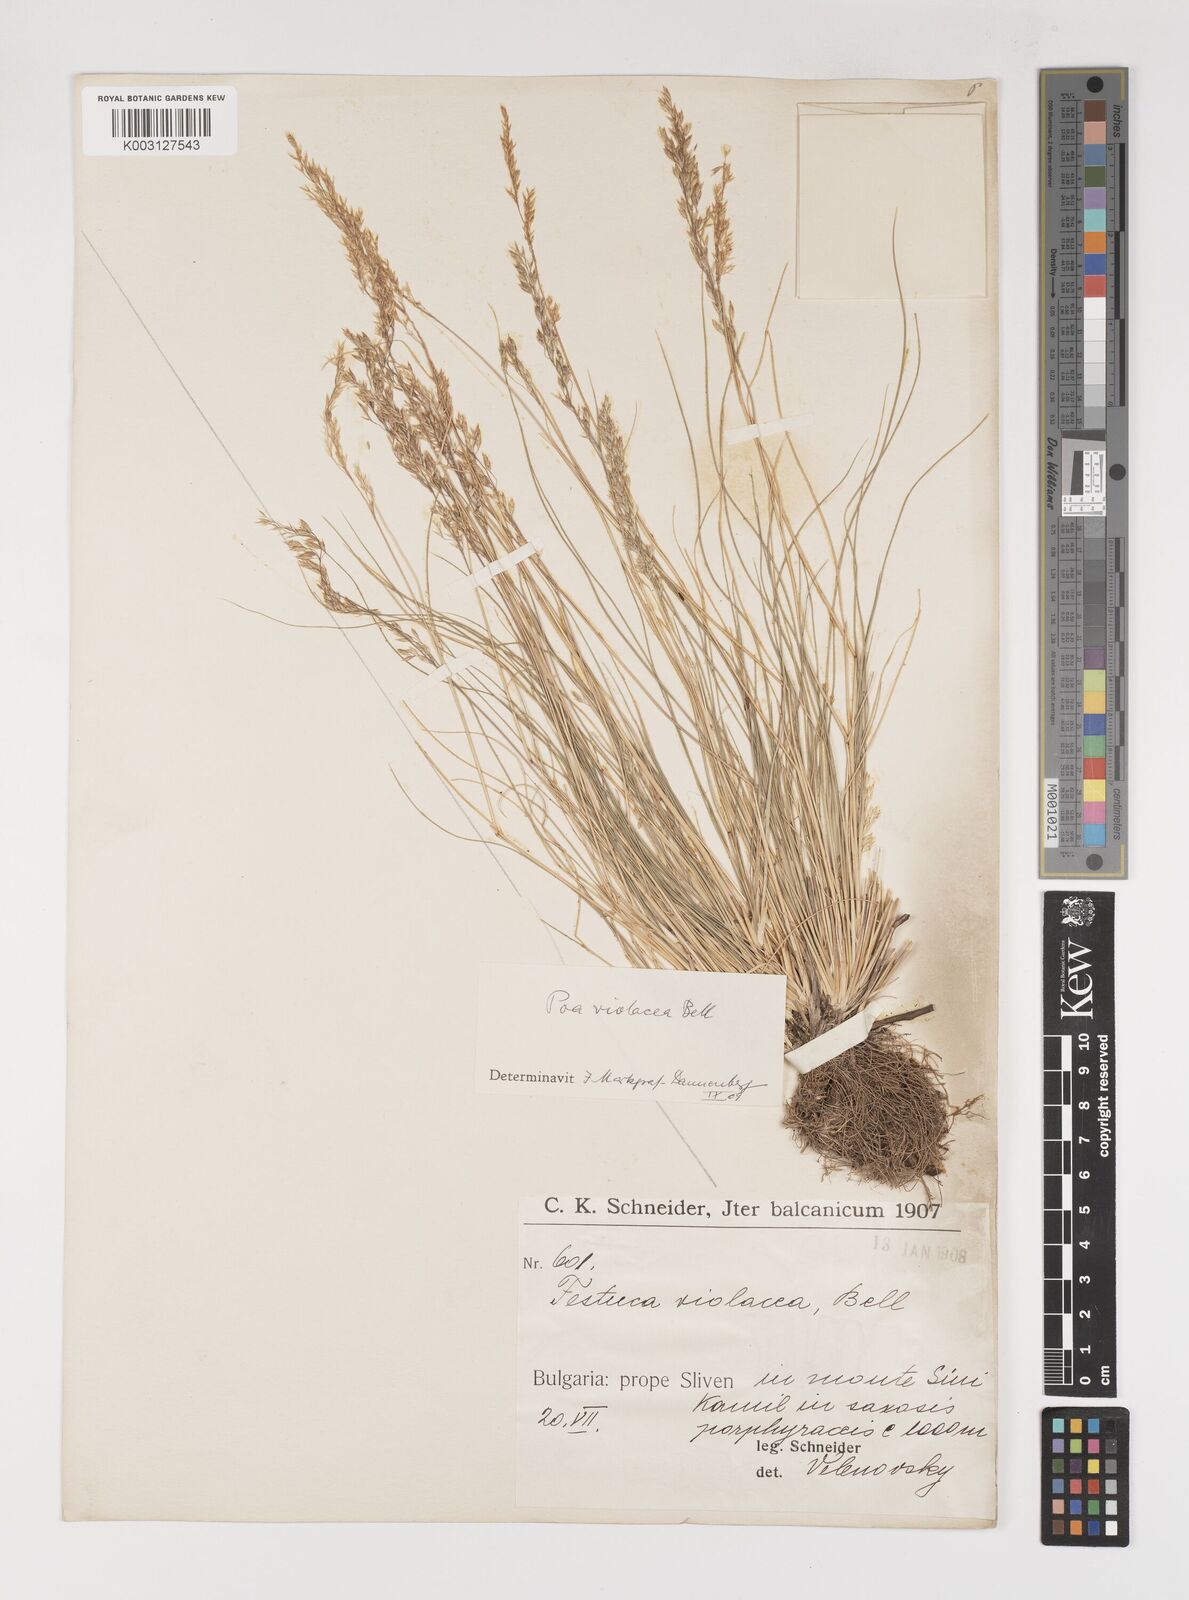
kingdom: Plantae
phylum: Tracheophyta
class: Liliopsida
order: Poales
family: Poaceae
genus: Bellardiochloa
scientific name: Bellardiochloa variegata
